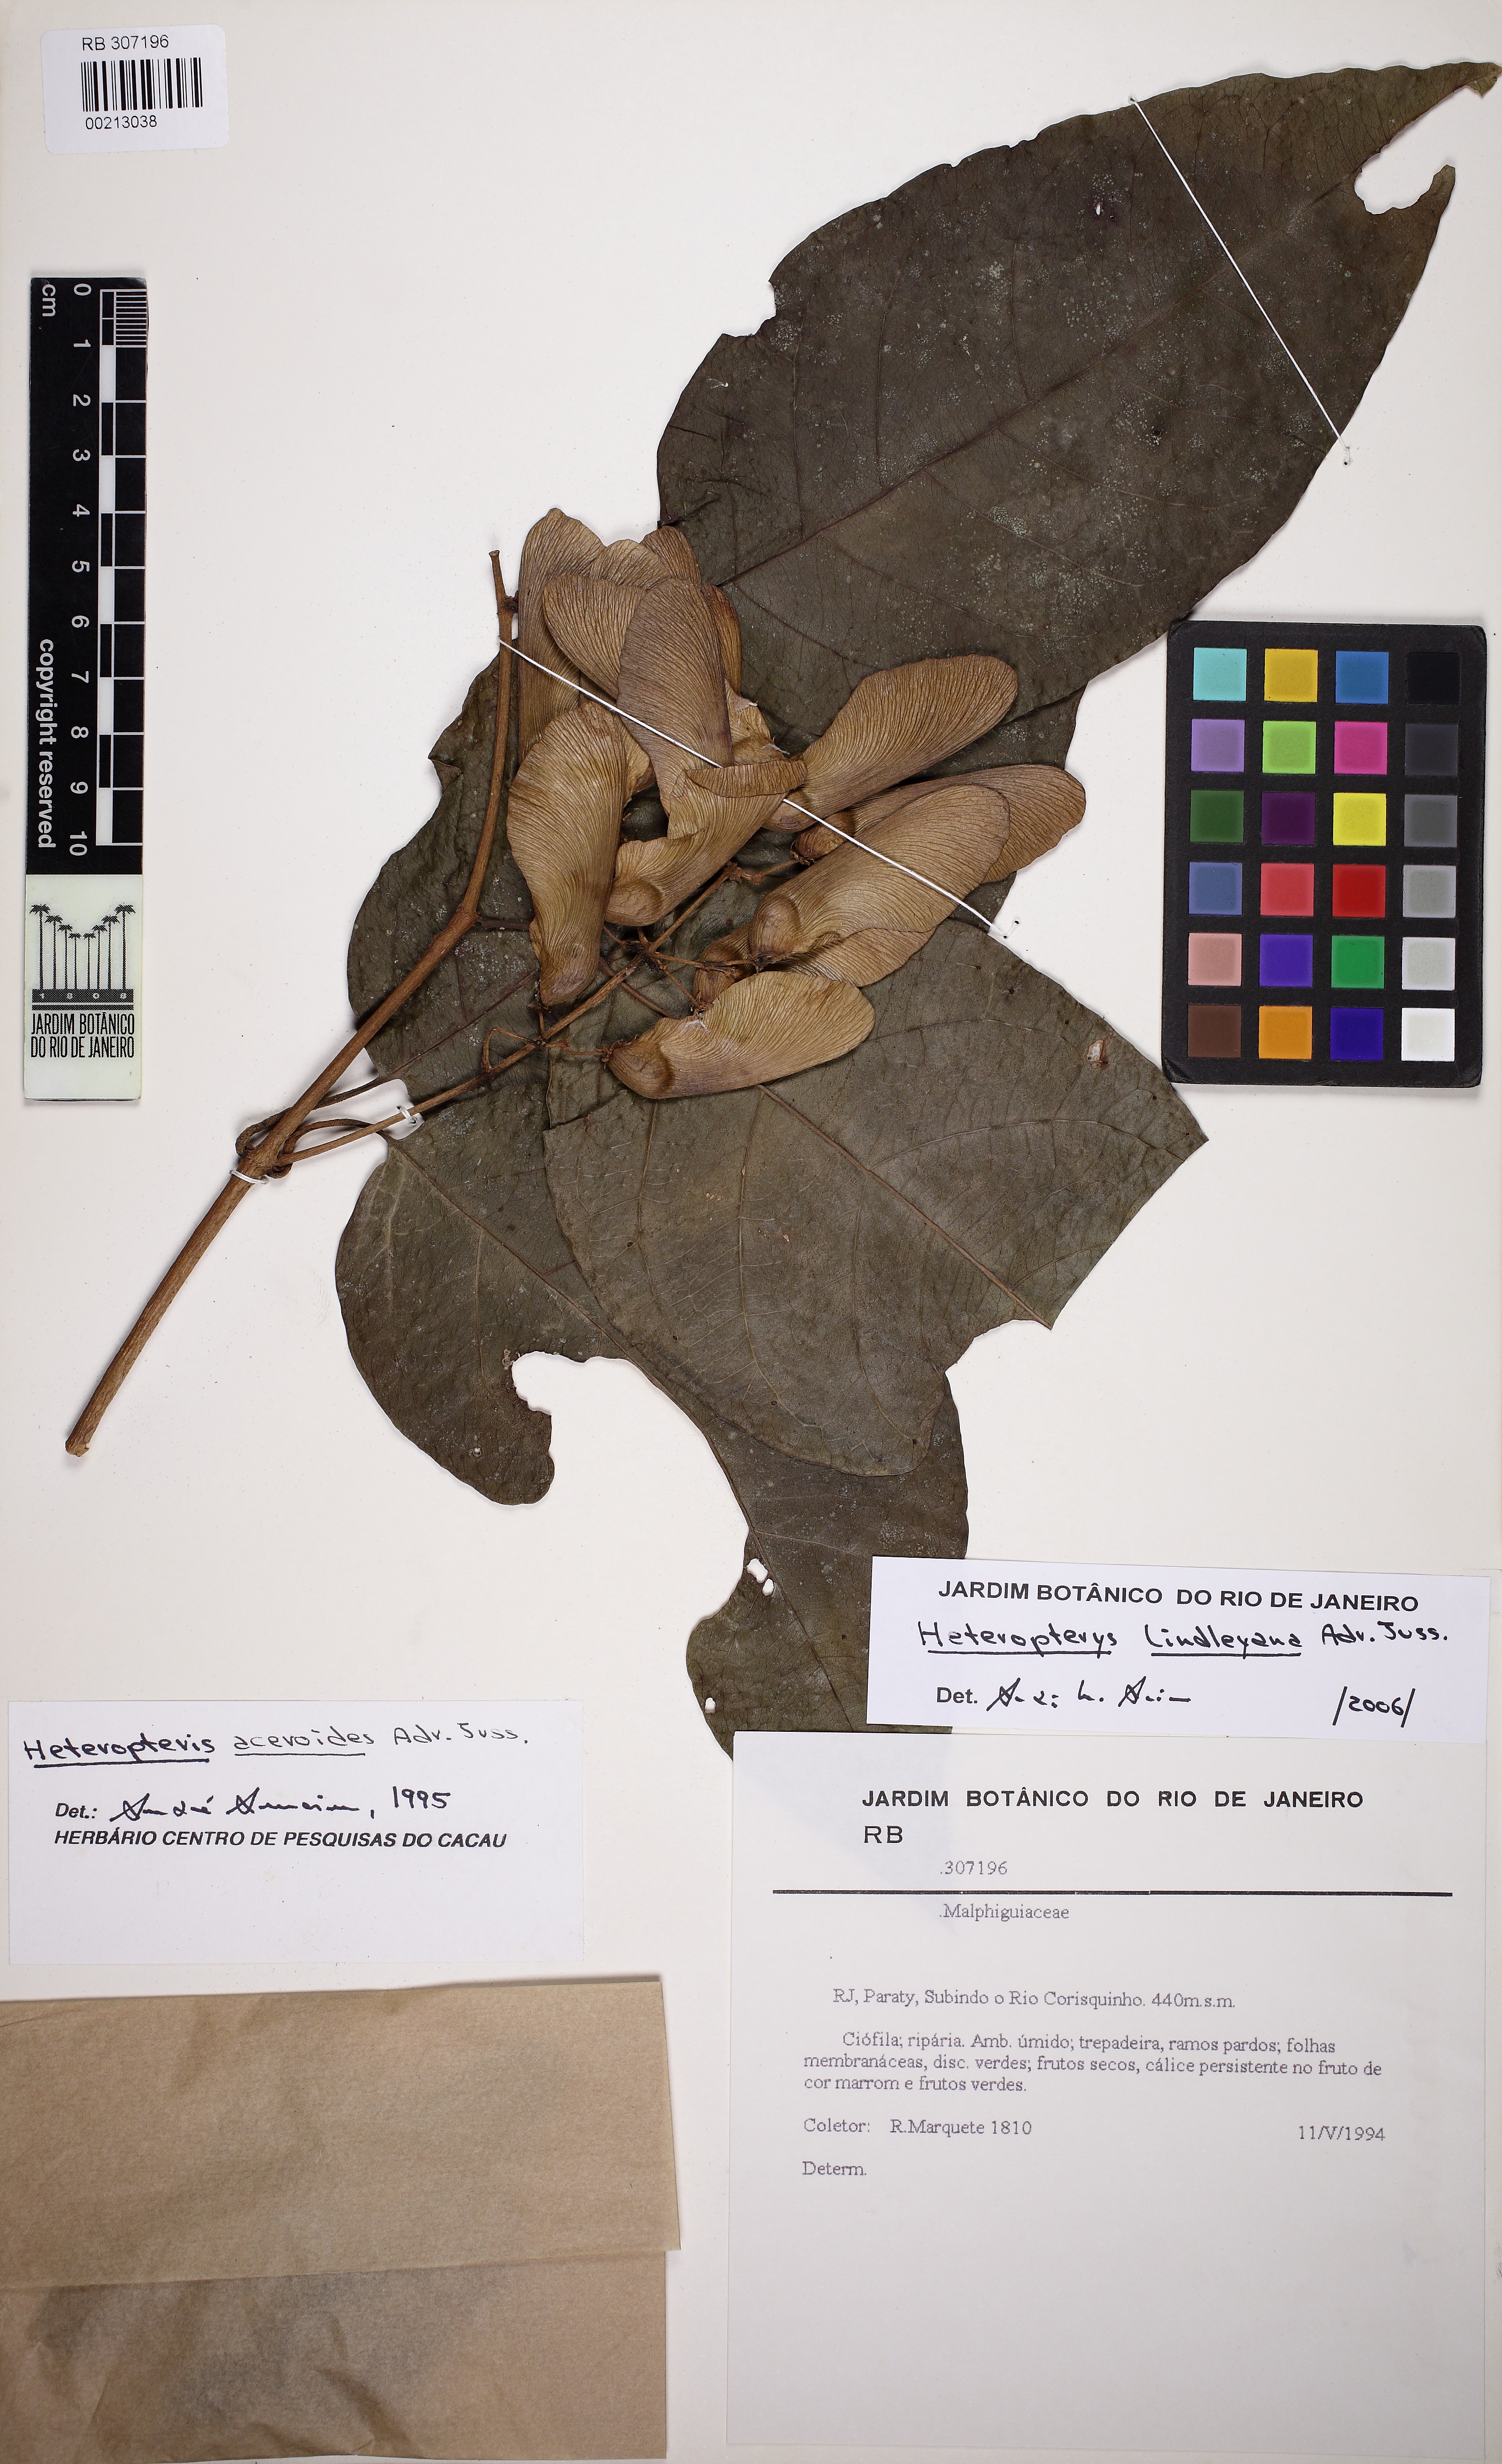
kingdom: Plantae
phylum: Tracheophyta
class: Magnoliopsida
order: Malpighiales
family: Malpighiaceae
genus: Heteropterys
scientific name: Heteropterys lindleyana
